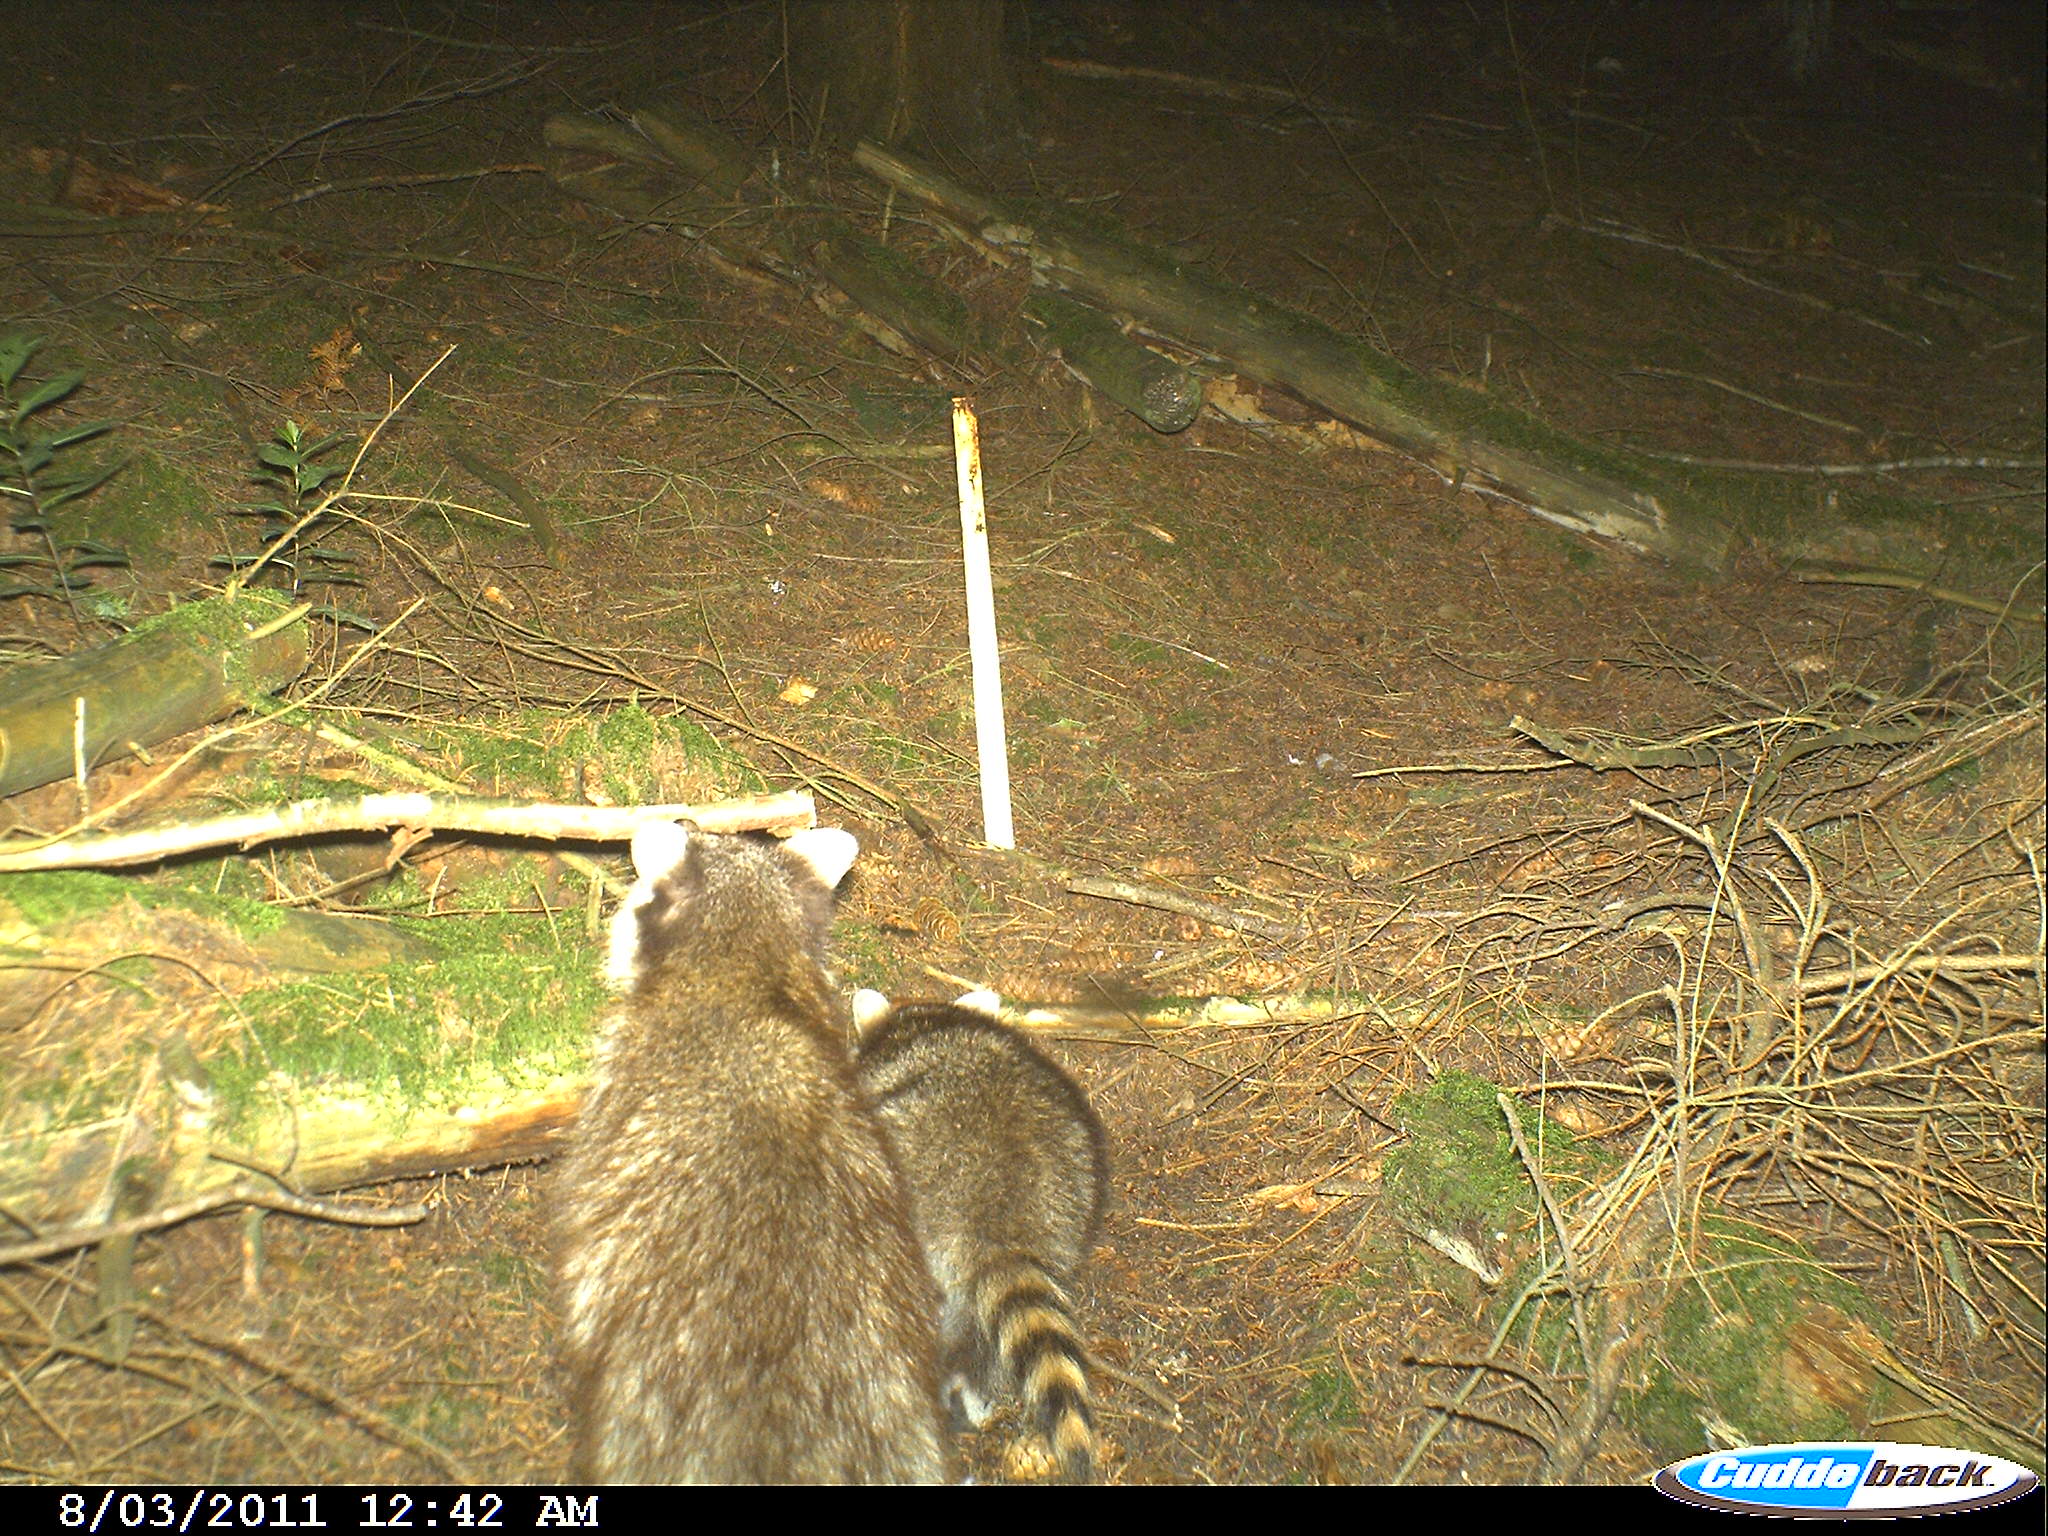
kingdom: Animalia
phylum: Chordata
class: Mammalia
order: Carnivora
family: Procyonidae
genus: Procyon
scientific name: Procyon lotor
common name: Raccoon
